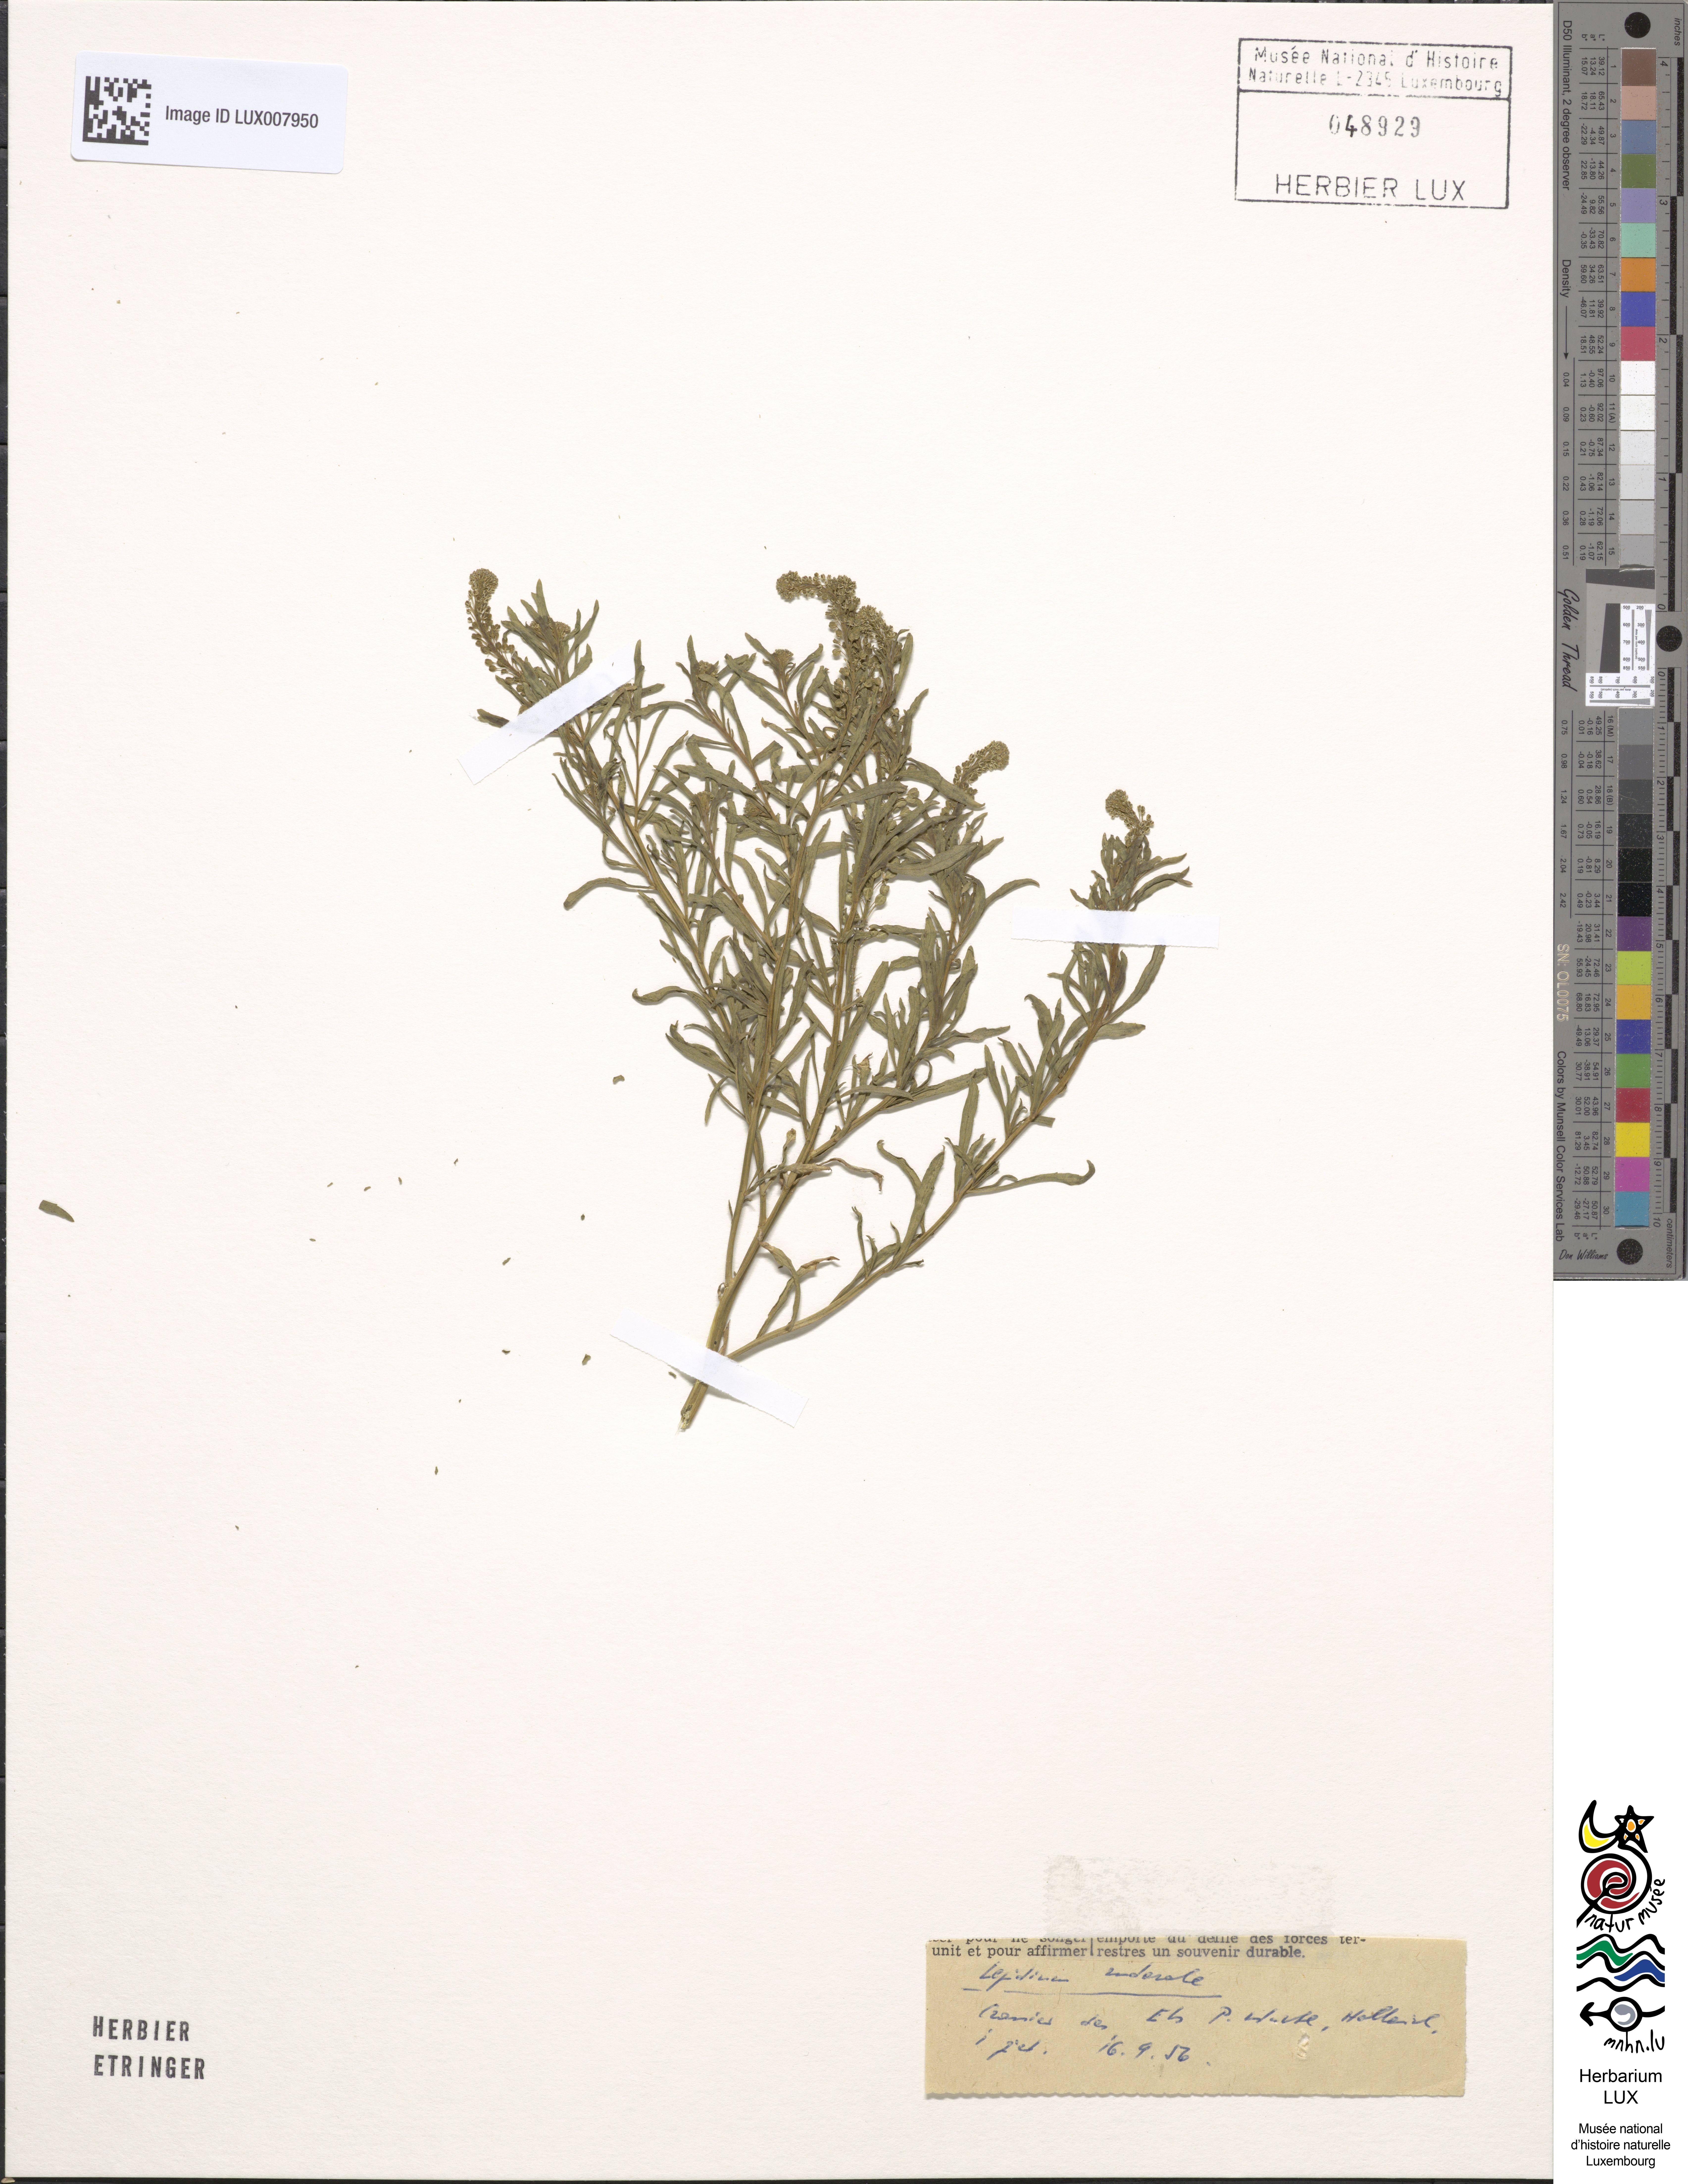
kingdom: Plantae
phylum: Tracheophyta
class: Magnoliopsida
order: Brassicales
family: Brassicaceae
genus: Lepidium
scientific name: Lepidium ruderale
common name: Narrow-leaved pepperwort
